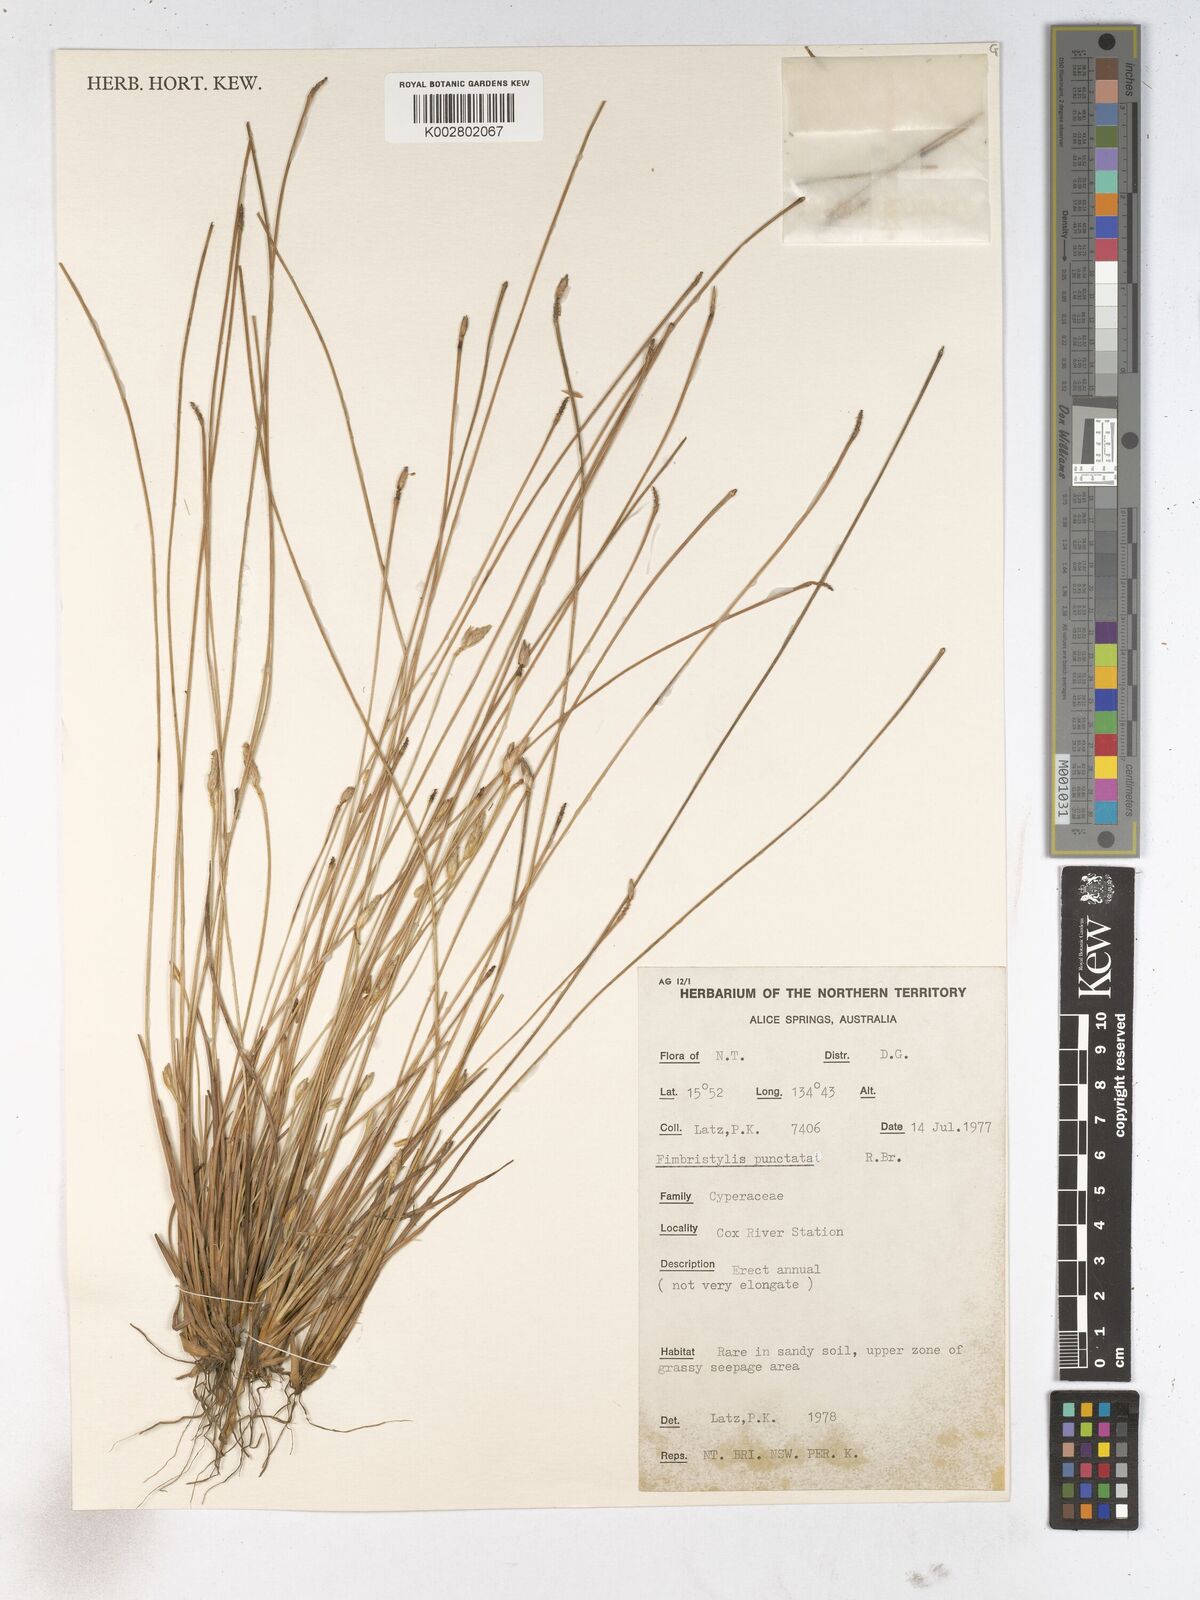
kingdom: Plantae
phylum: Tracheophyta
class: Liliopsida
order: Poales
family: Cyperaceae
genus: Fimbristylis
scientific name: Fimbristylis punctata
